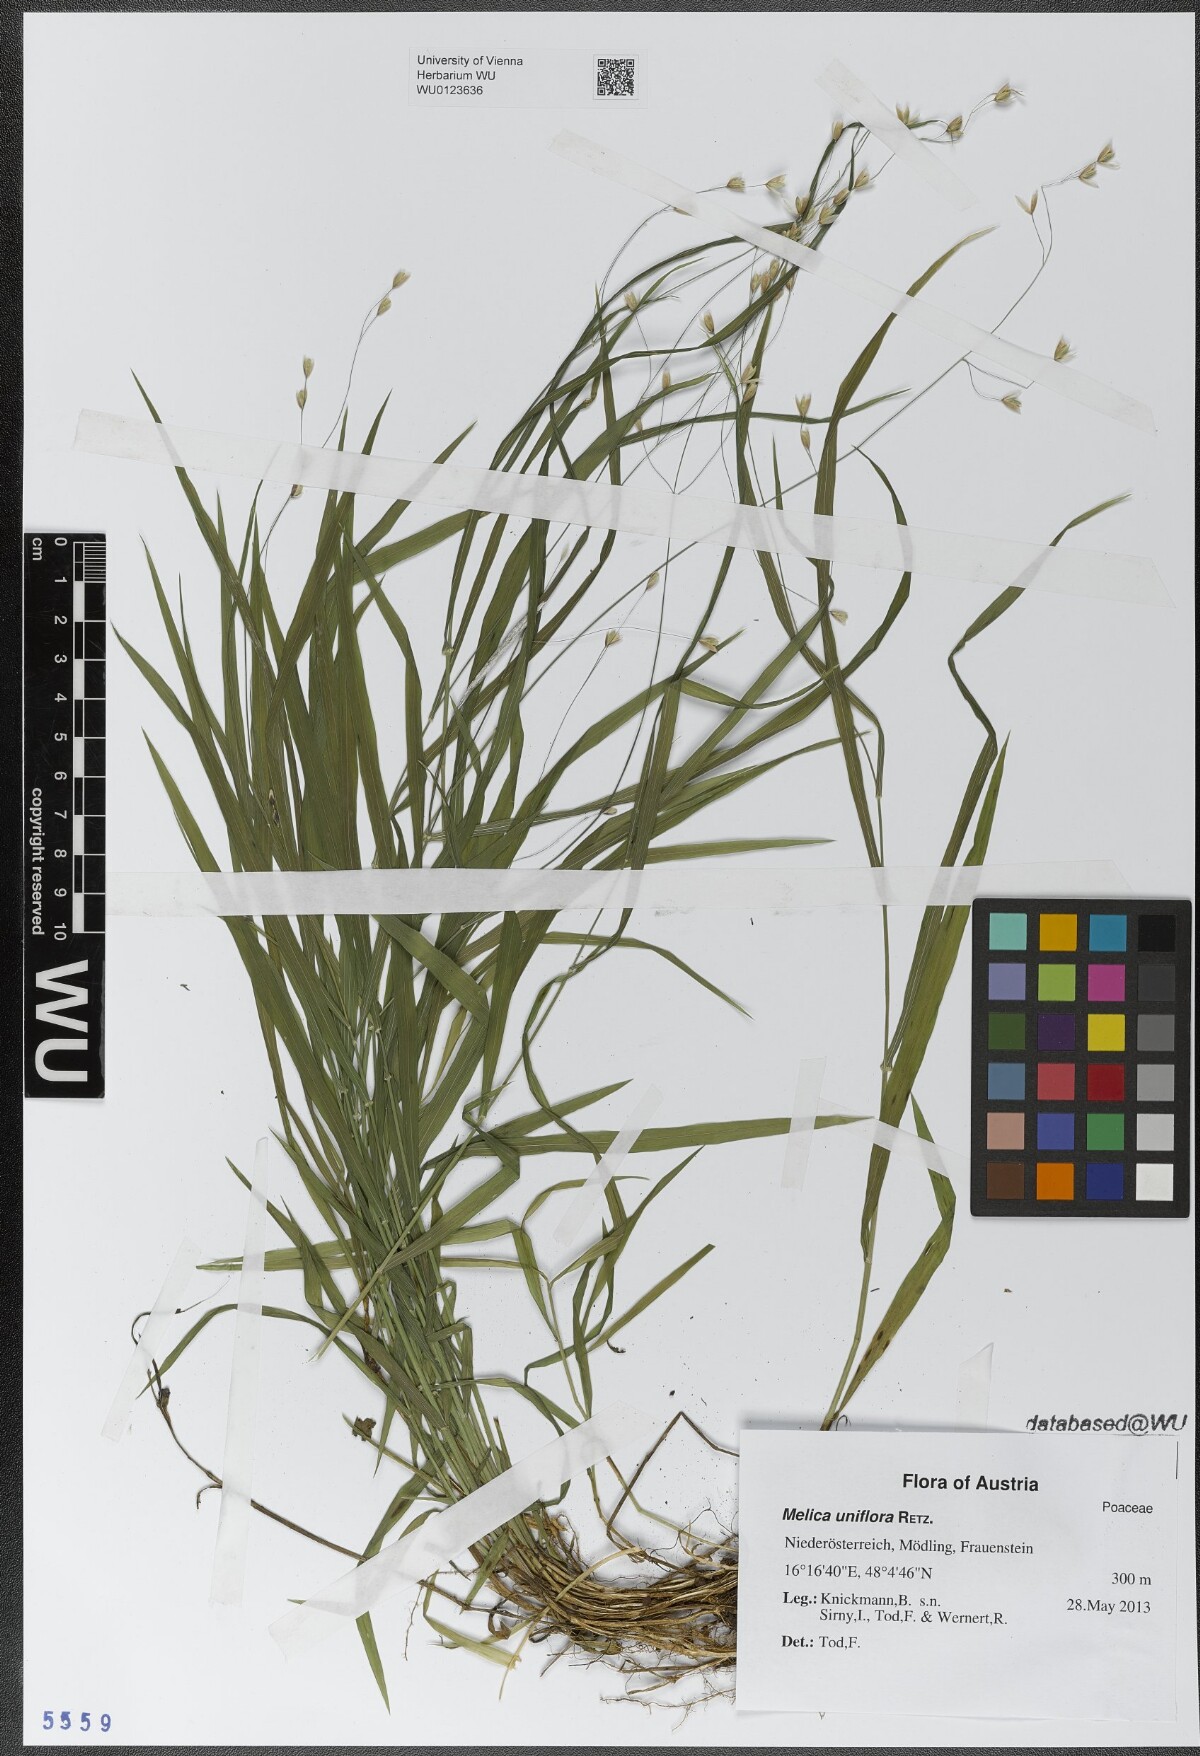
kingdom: Plantae
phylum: Tracheophyta
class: Liliopsida
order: Poales
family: Poaceae
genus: Melica
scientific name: Melica uniflora
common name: Wood melick
